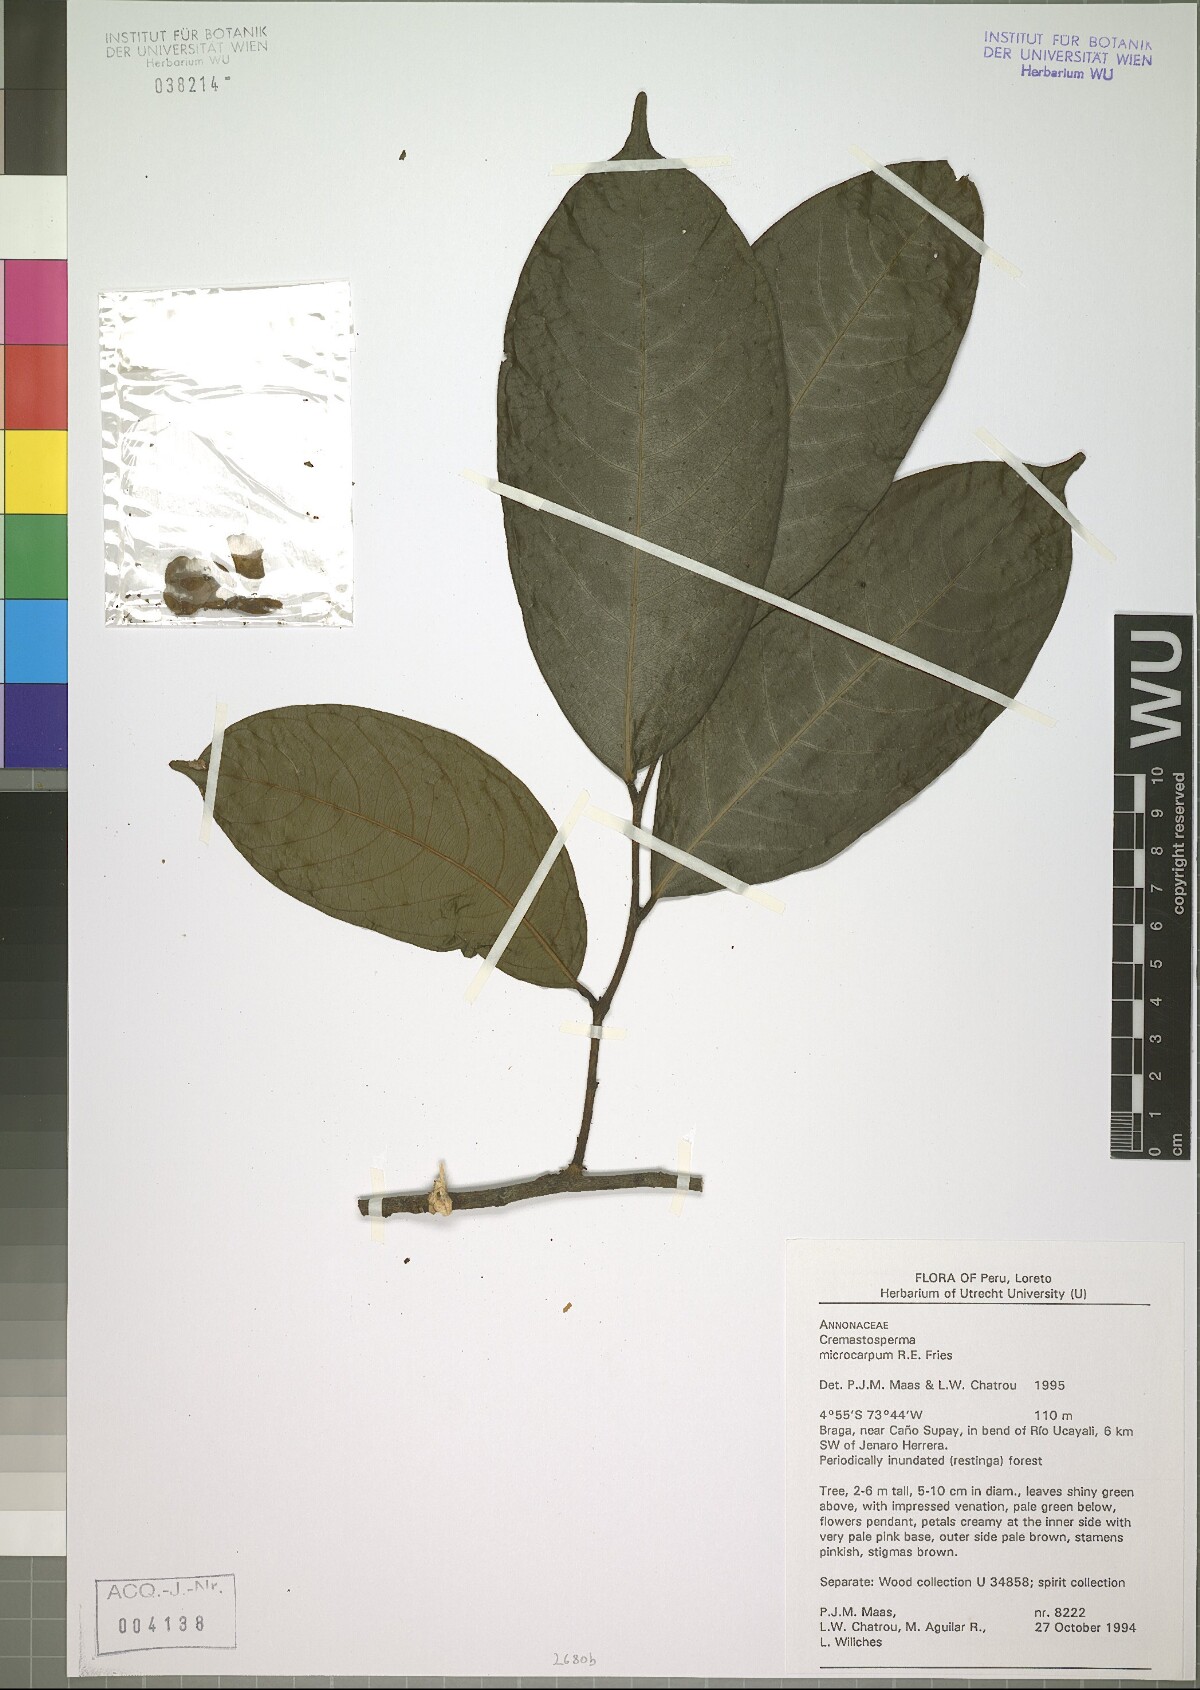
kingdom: Plantae
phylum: Tracheophyta
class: Magnoliopsida
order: Magnoliales
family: Annonaceae
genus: Cremastosperma
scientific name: Cremastosperma microcarpum
